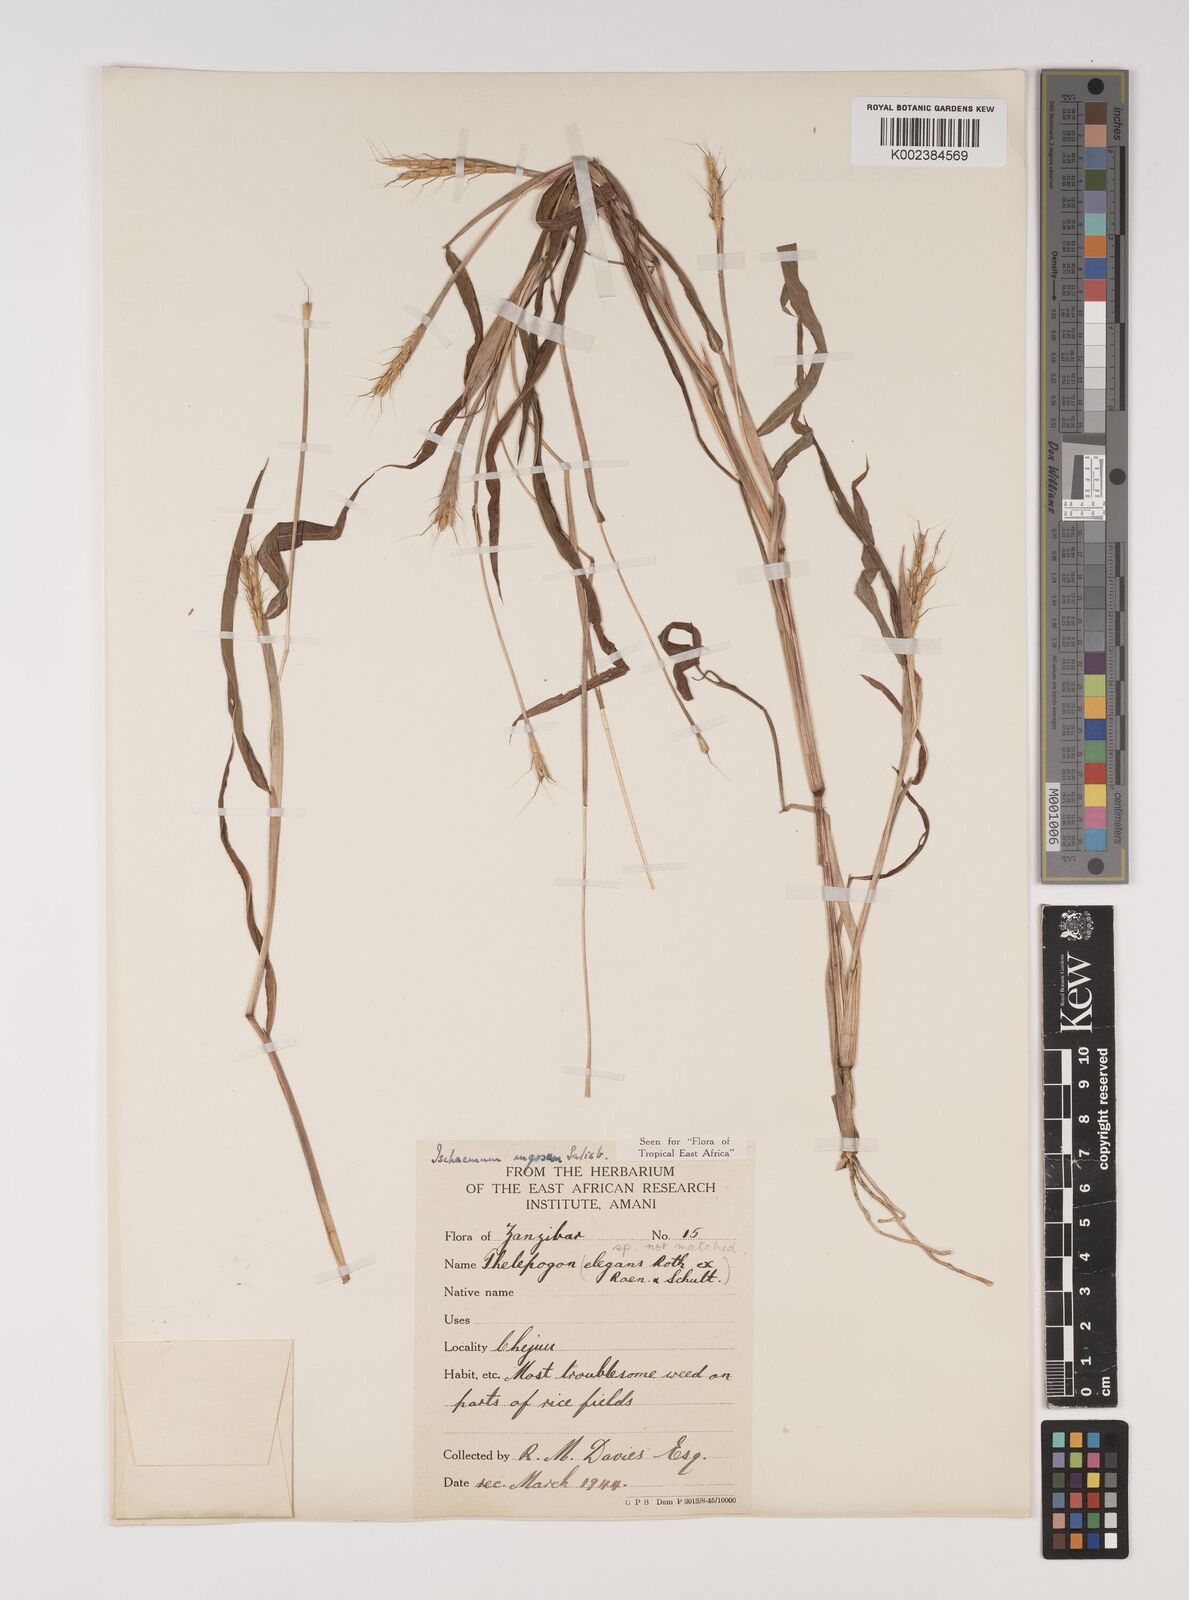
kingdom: Plantae
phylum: Tracheophyta
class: Liliopsida
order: Poales
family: Poaceae
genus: Ischaemum
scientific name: Ischaemum rugosum
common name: Saramatta grass
